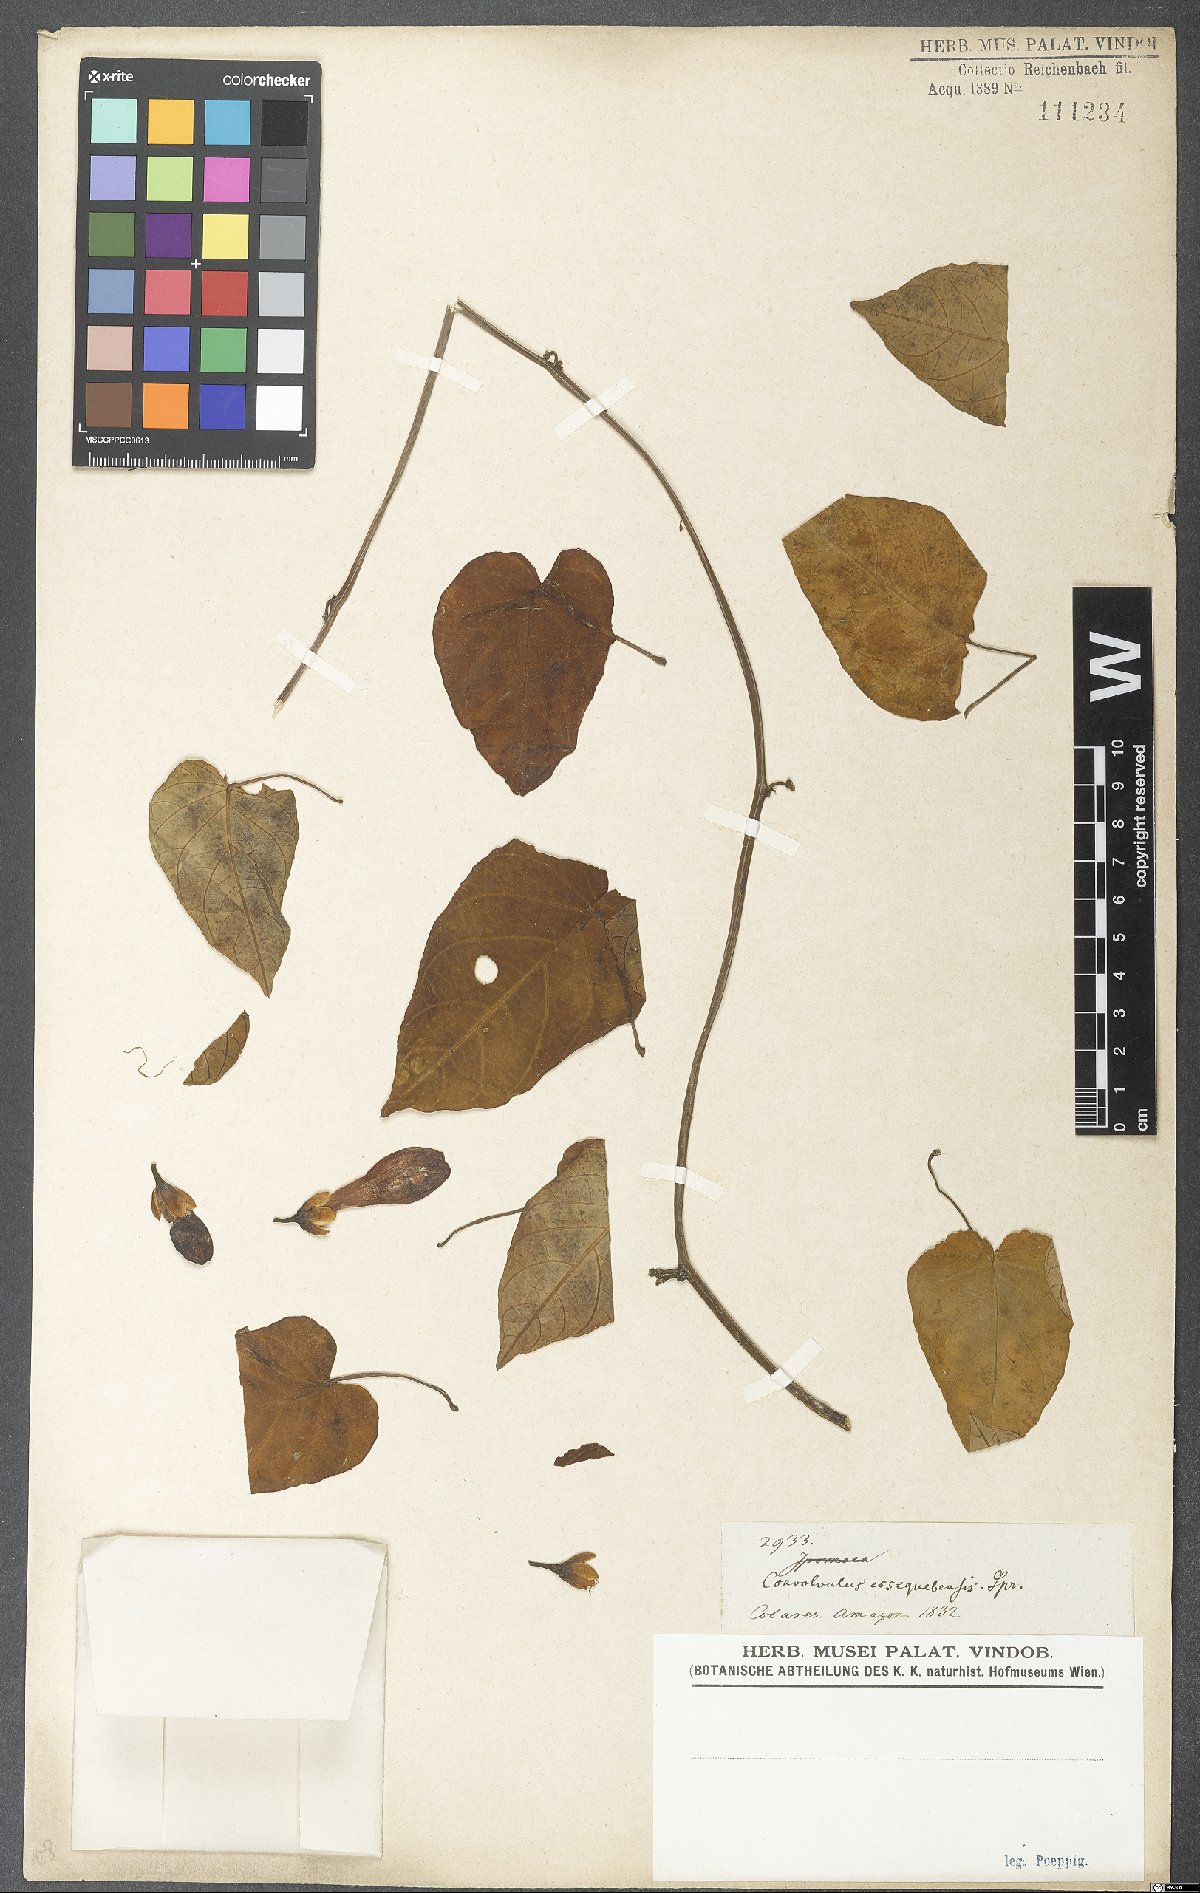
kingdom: Plantae
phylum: Tracheophyta
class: Magnoliopsida
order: Solanales
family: Convolvulaceae
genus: Ipomoea
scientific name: Ipomoea batatas
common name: Sweet-potato
